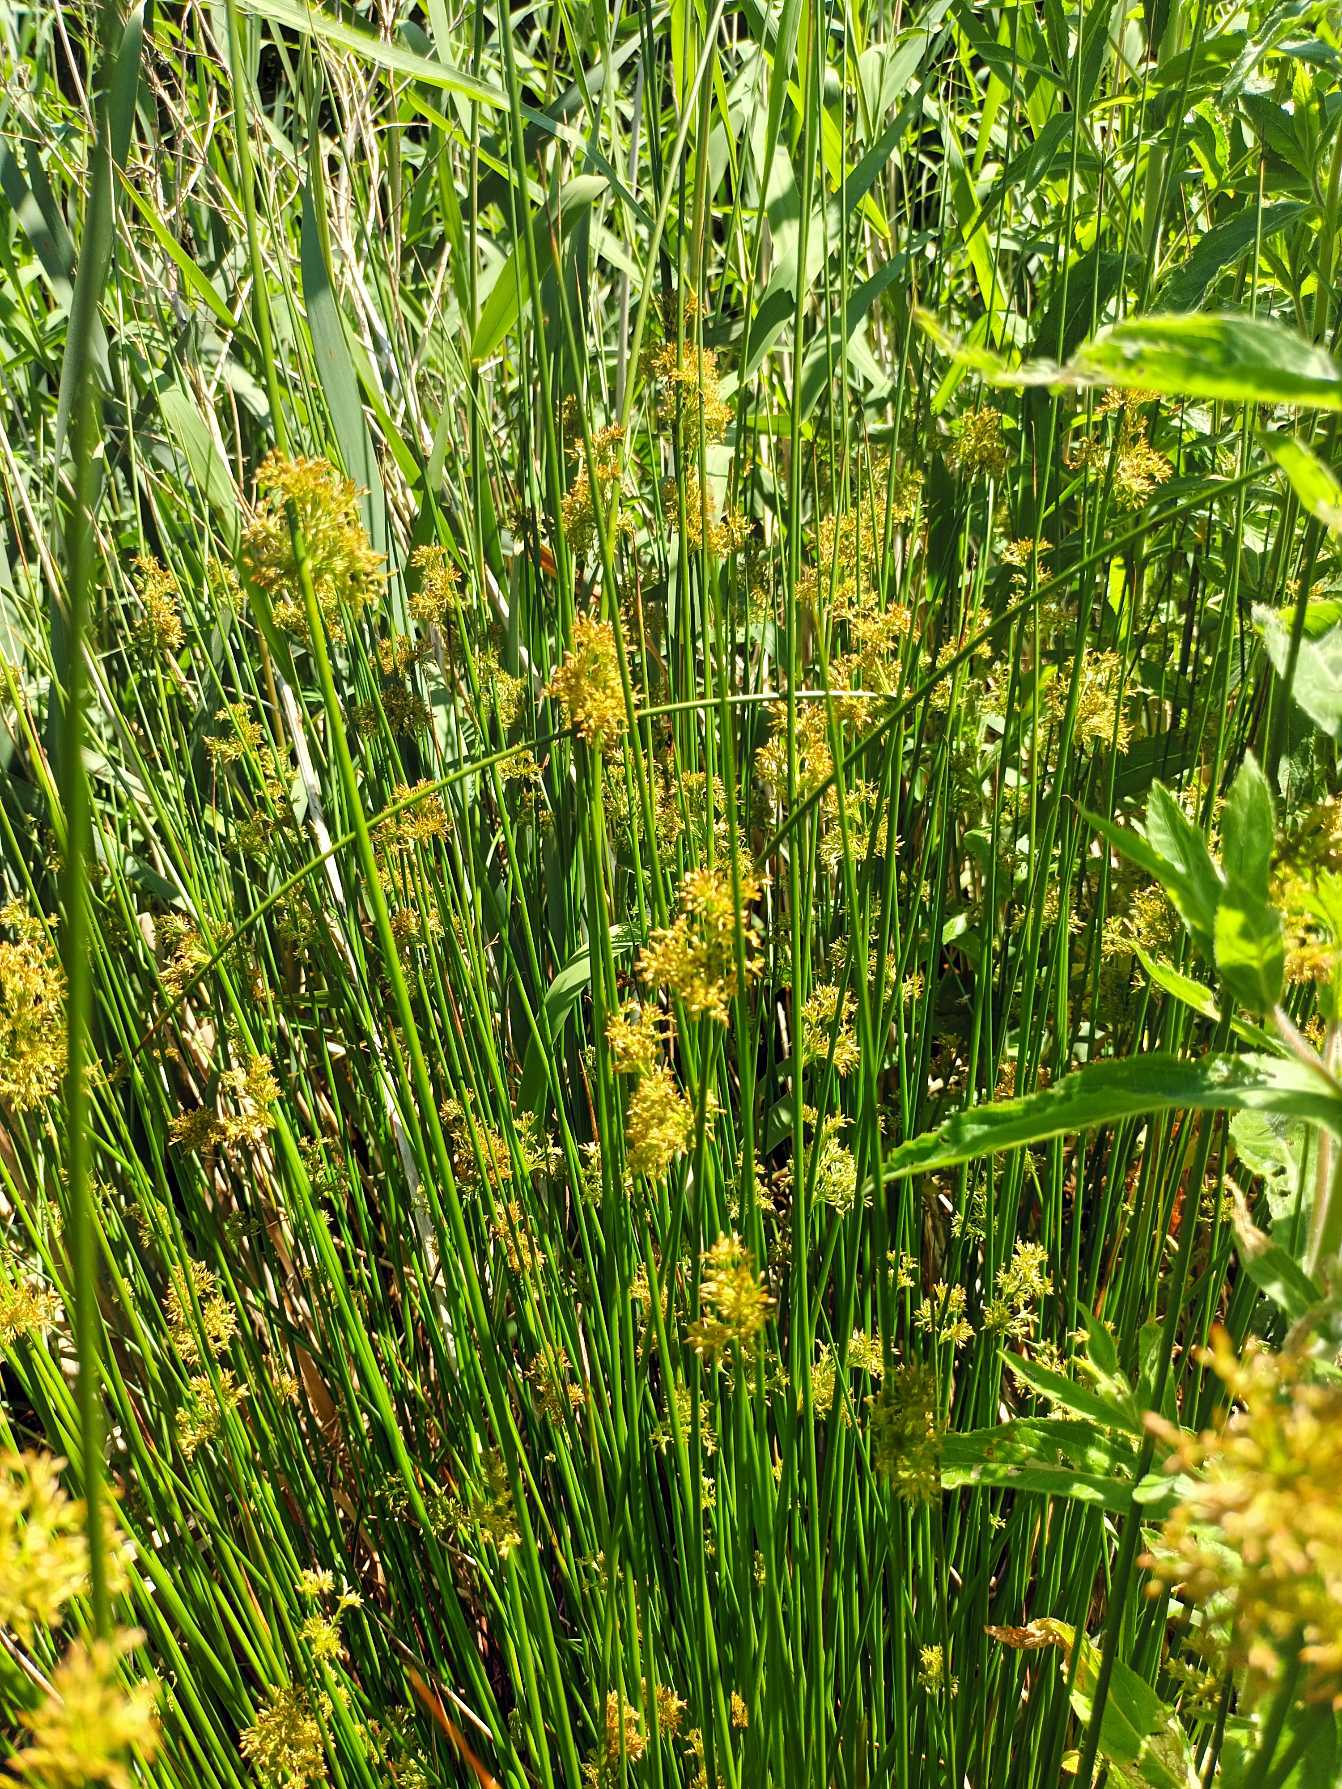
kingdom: Plantae
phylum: Tracheophyta
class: Liliopsida
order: Poales
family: Juncaceae
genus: Juncus
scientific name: Juncus effusus
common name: Lyse-siv
